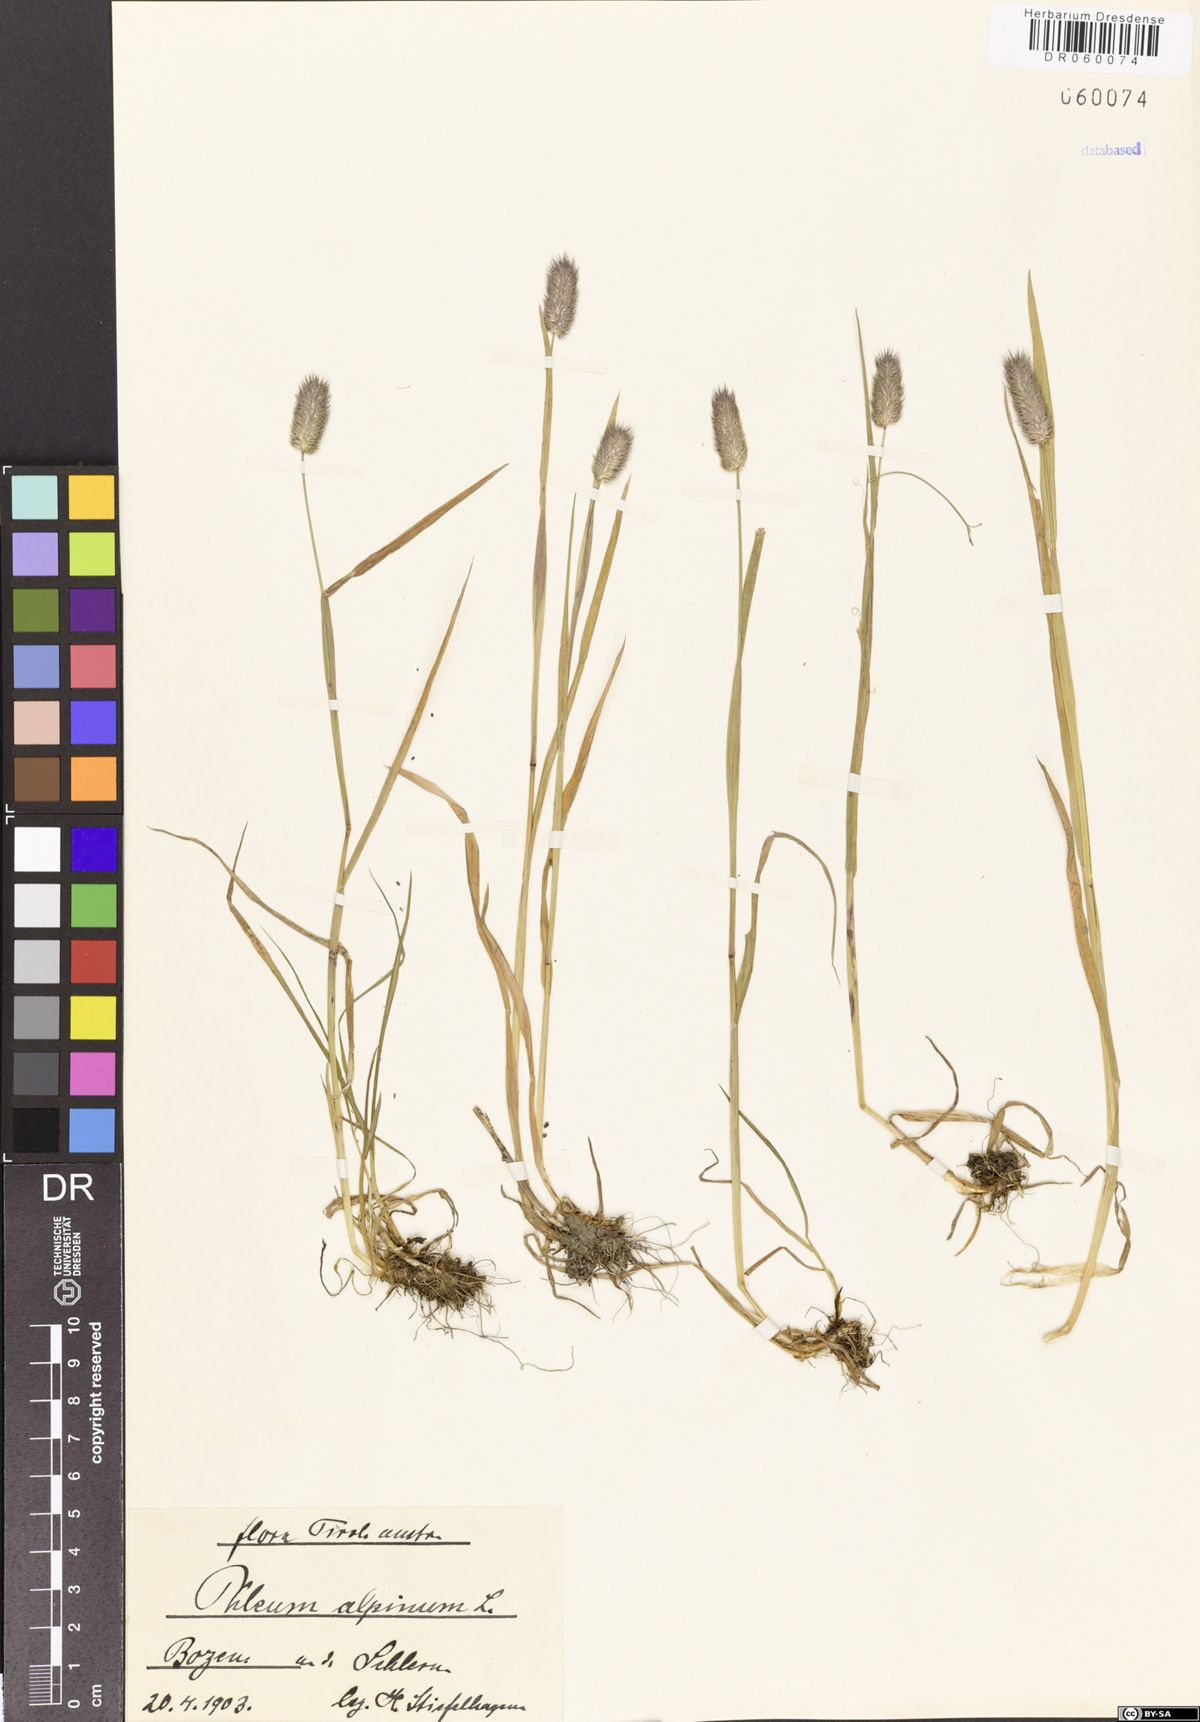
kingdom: Plantae
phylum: Tracheophyta
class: Liliopsida
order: Poales
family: Poaceae
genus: Phleum
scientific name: Phleum alpinum
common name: Alpine cat's-tail
